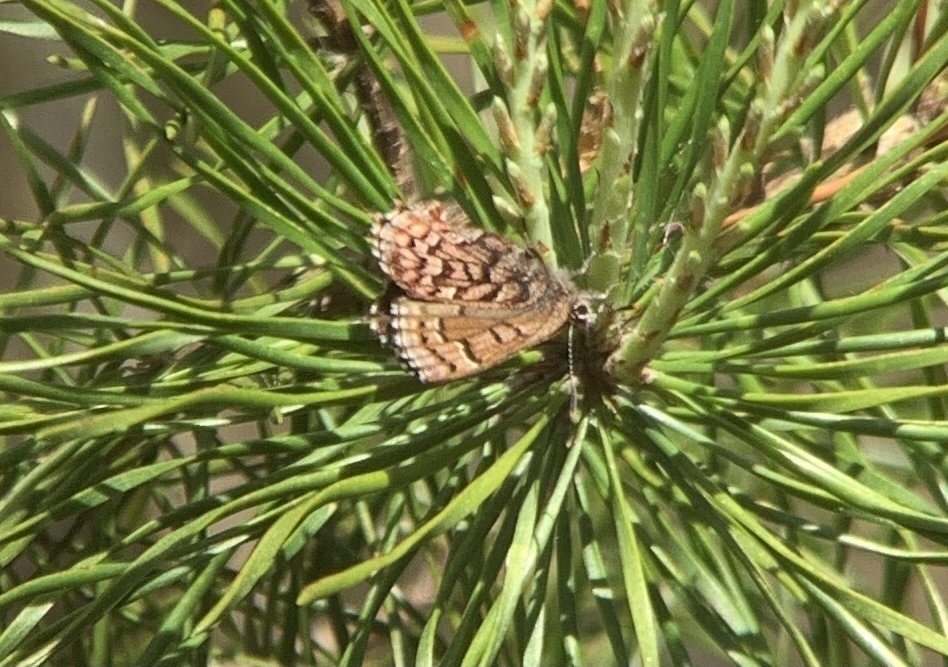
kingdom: Animalia
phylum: Arthropoda
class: Insecta
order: Lepidoptera
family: Lycaenidae
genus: Incisalia
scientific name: Incisalia niphon
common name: Eastern Pine Elfin
